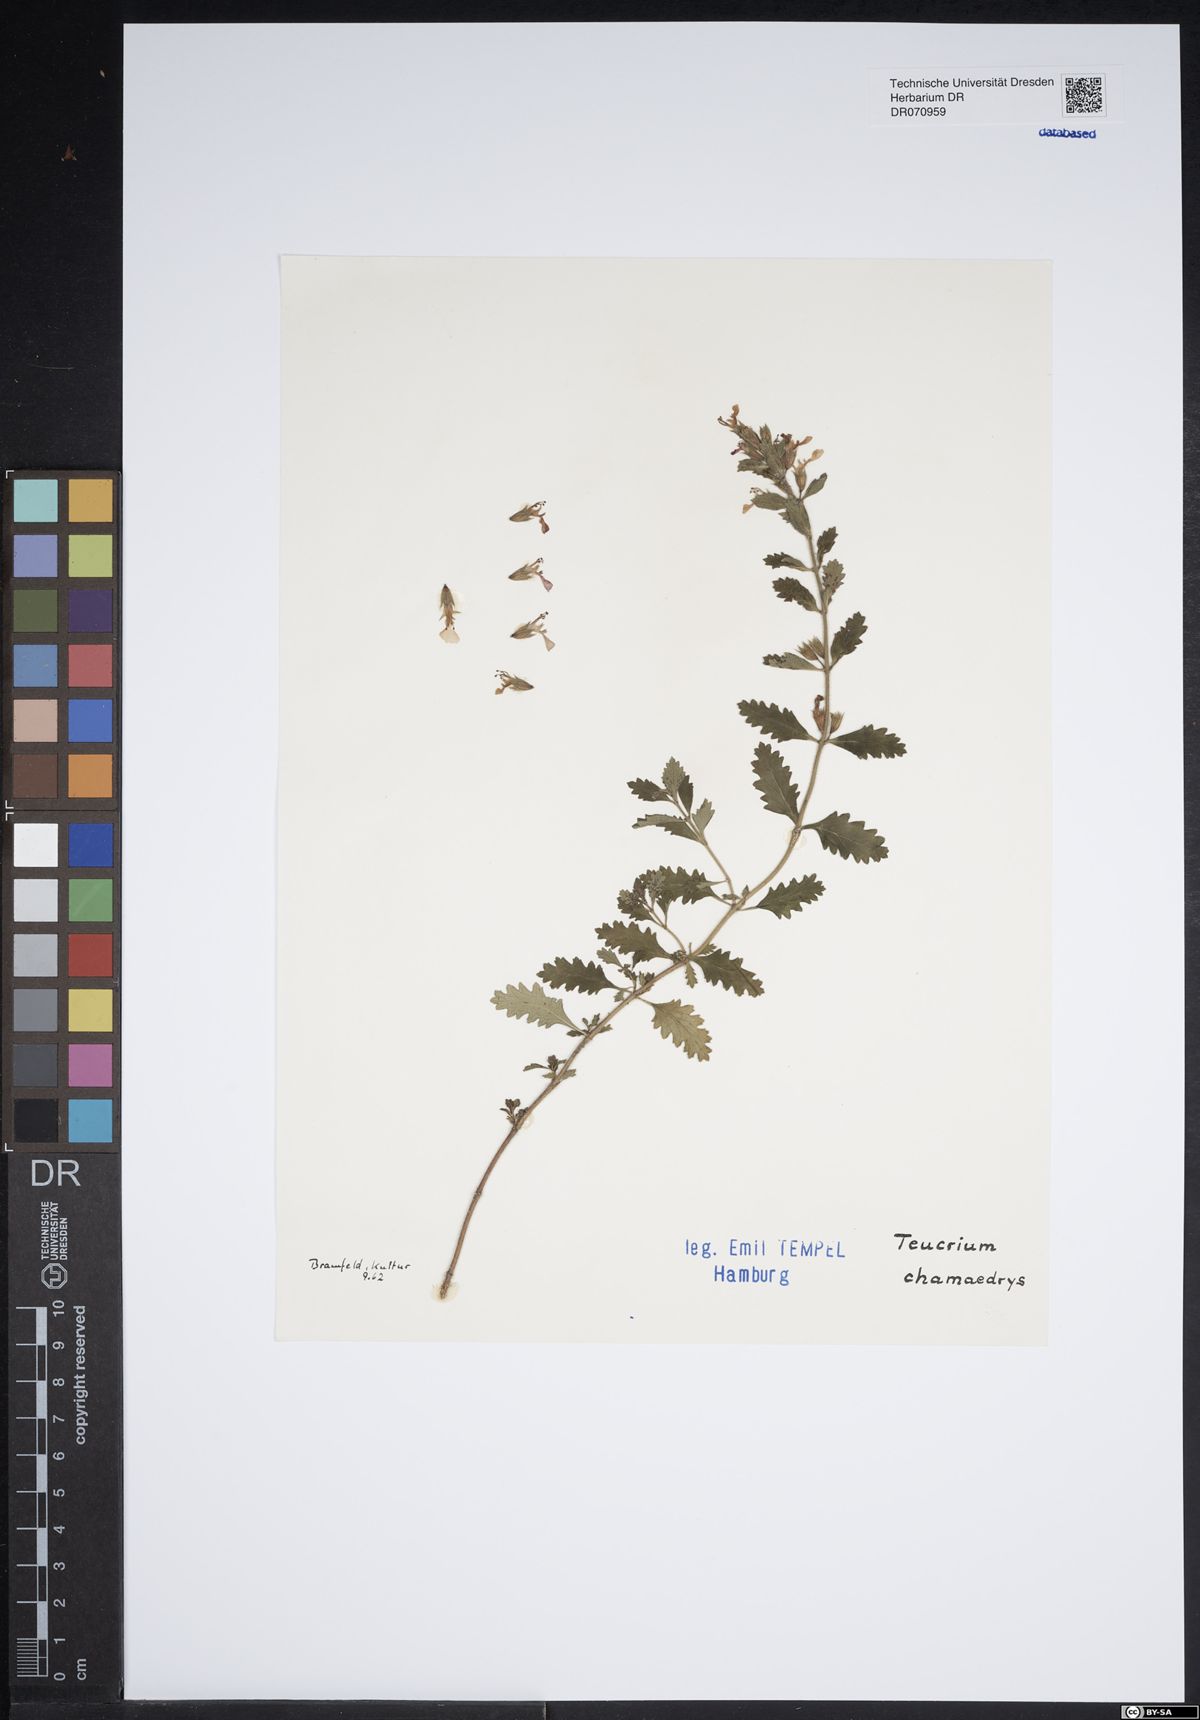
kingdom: Plantae
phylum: Tracheophyta
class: Magnoliopsida
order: Lamiales
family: Lamiaceae
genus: Teucrium
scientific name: Teucrium chamaedrys
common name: Wall germander
